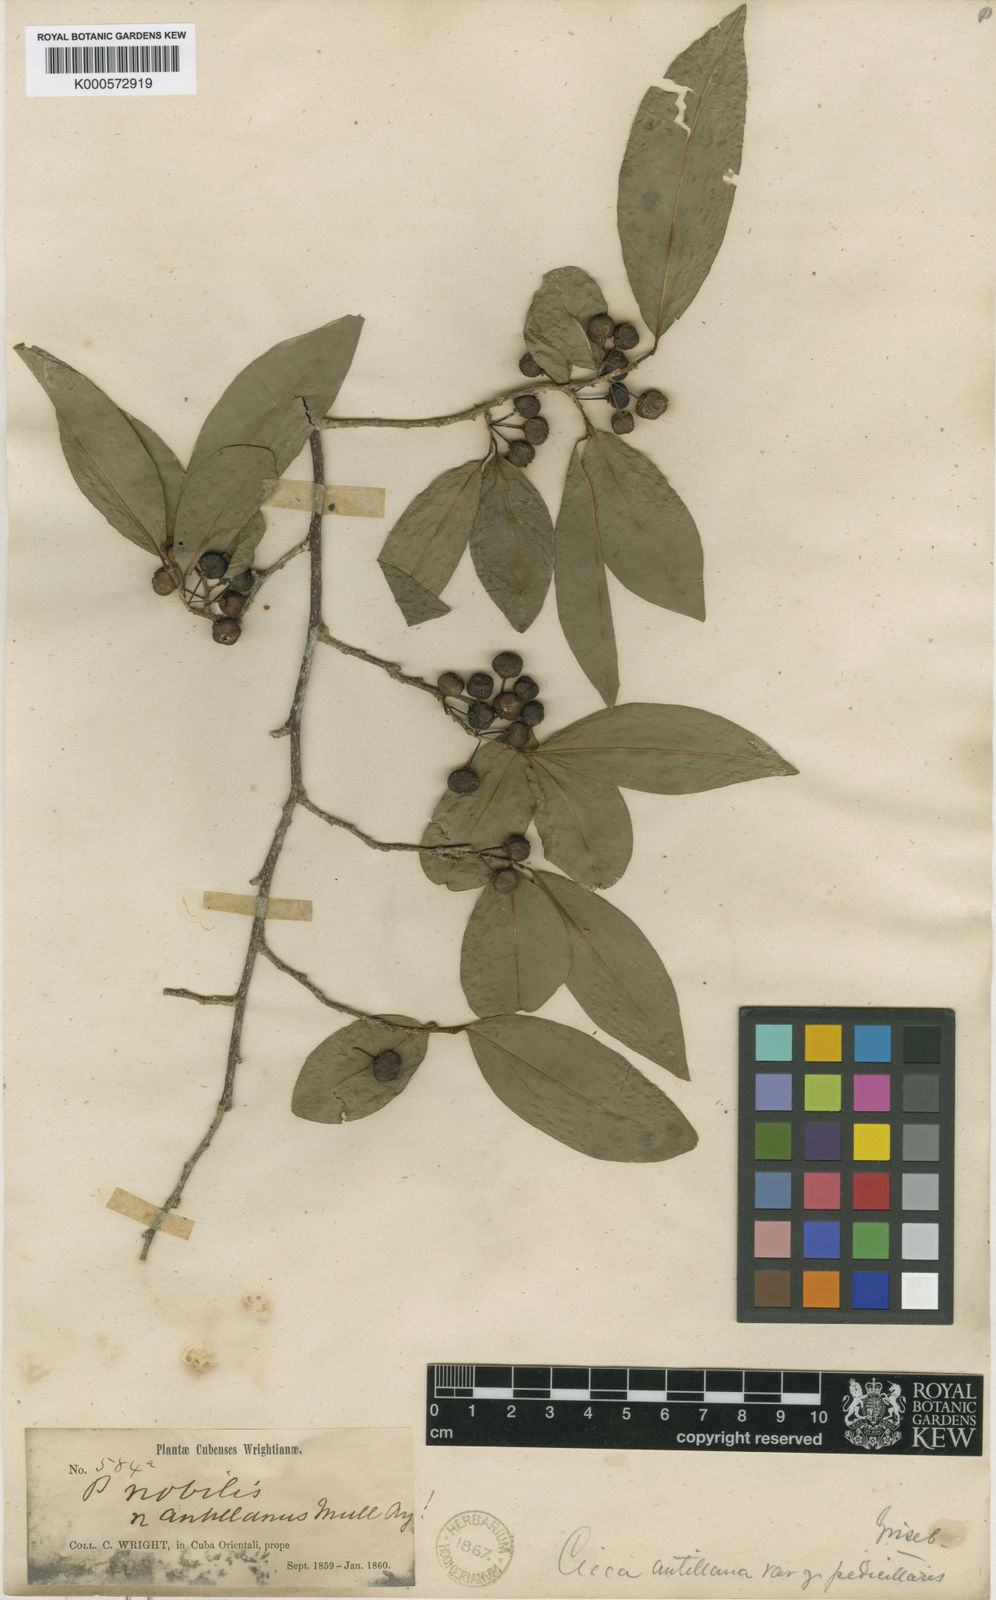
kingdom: Plantae
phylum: Tracheophyta
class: Magnoliopsida
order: Malpighiales
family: Phyllanthaceae
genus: Margaritaria
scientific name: Margaritaria nobilis
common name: Goose berry
